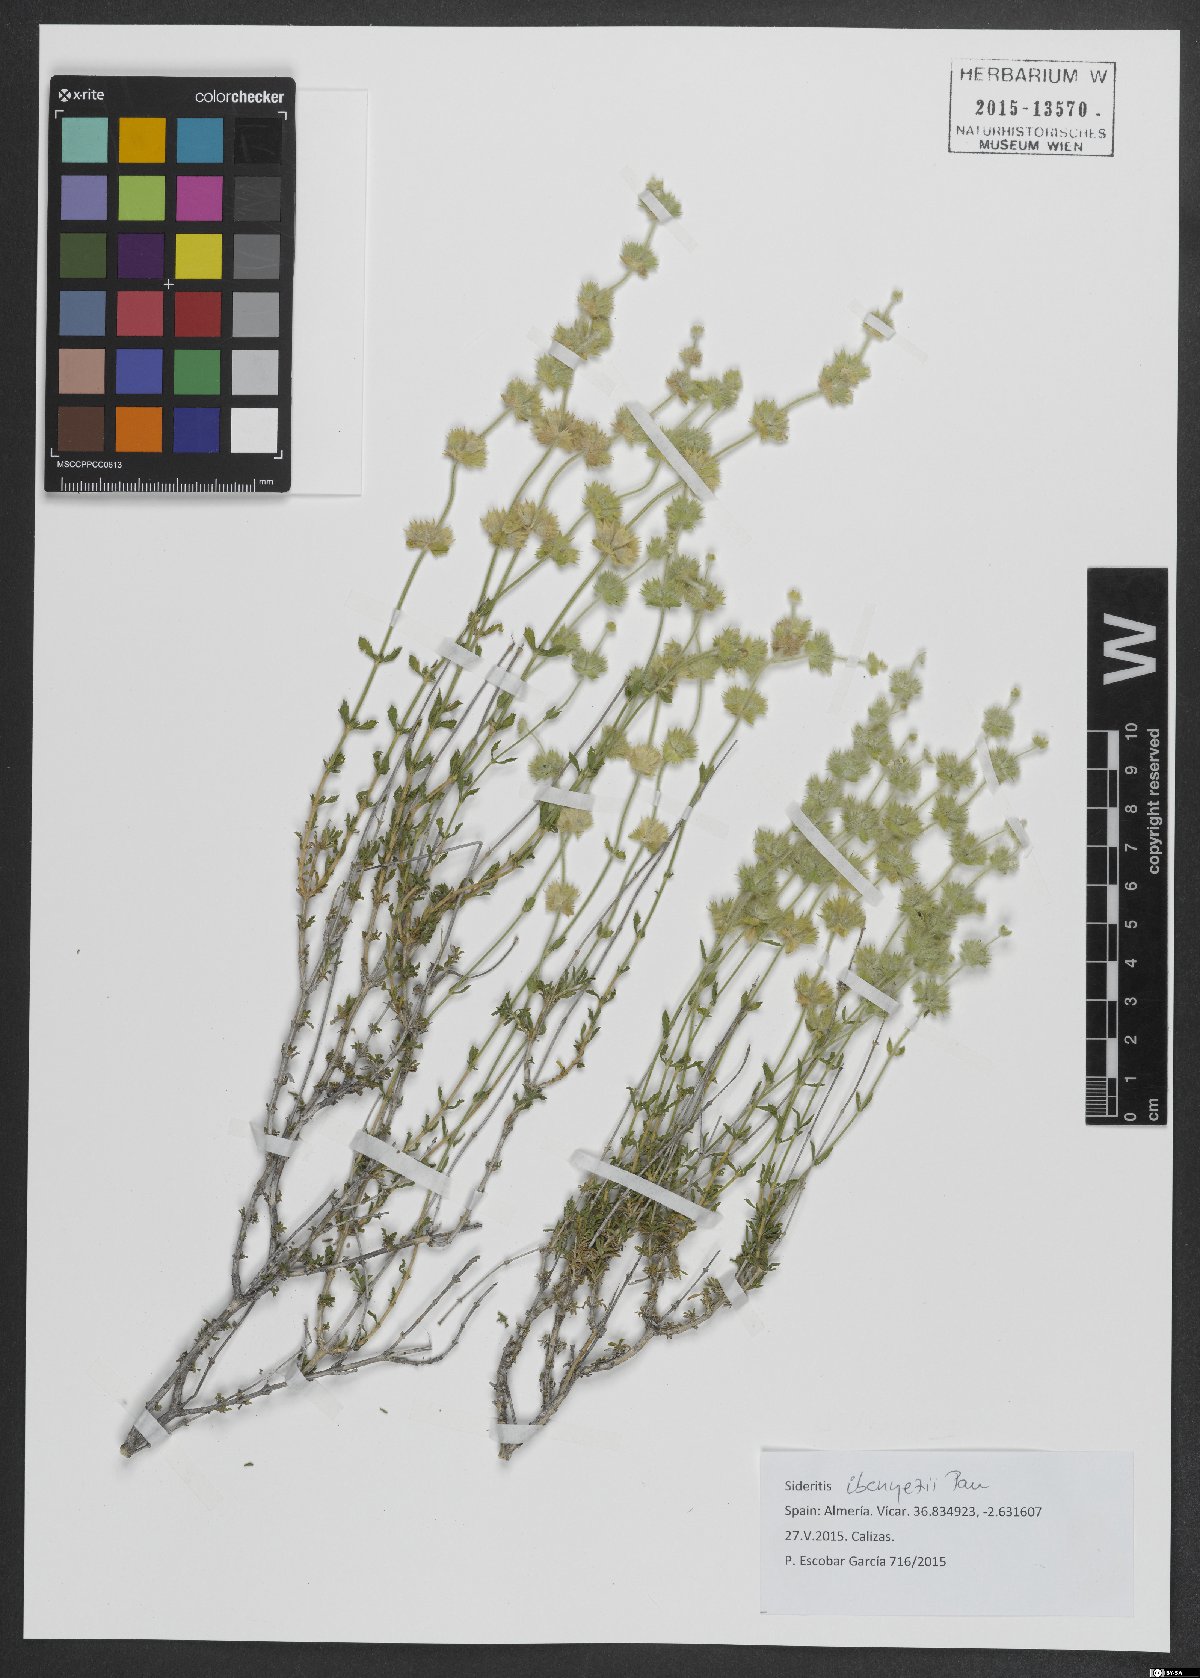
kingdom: Plantae
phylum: Tracheophyta
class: Magnoliopsida
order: Lamiales
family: Lamiaceae
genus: Sideritis
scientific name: Sideritis ibanezii
